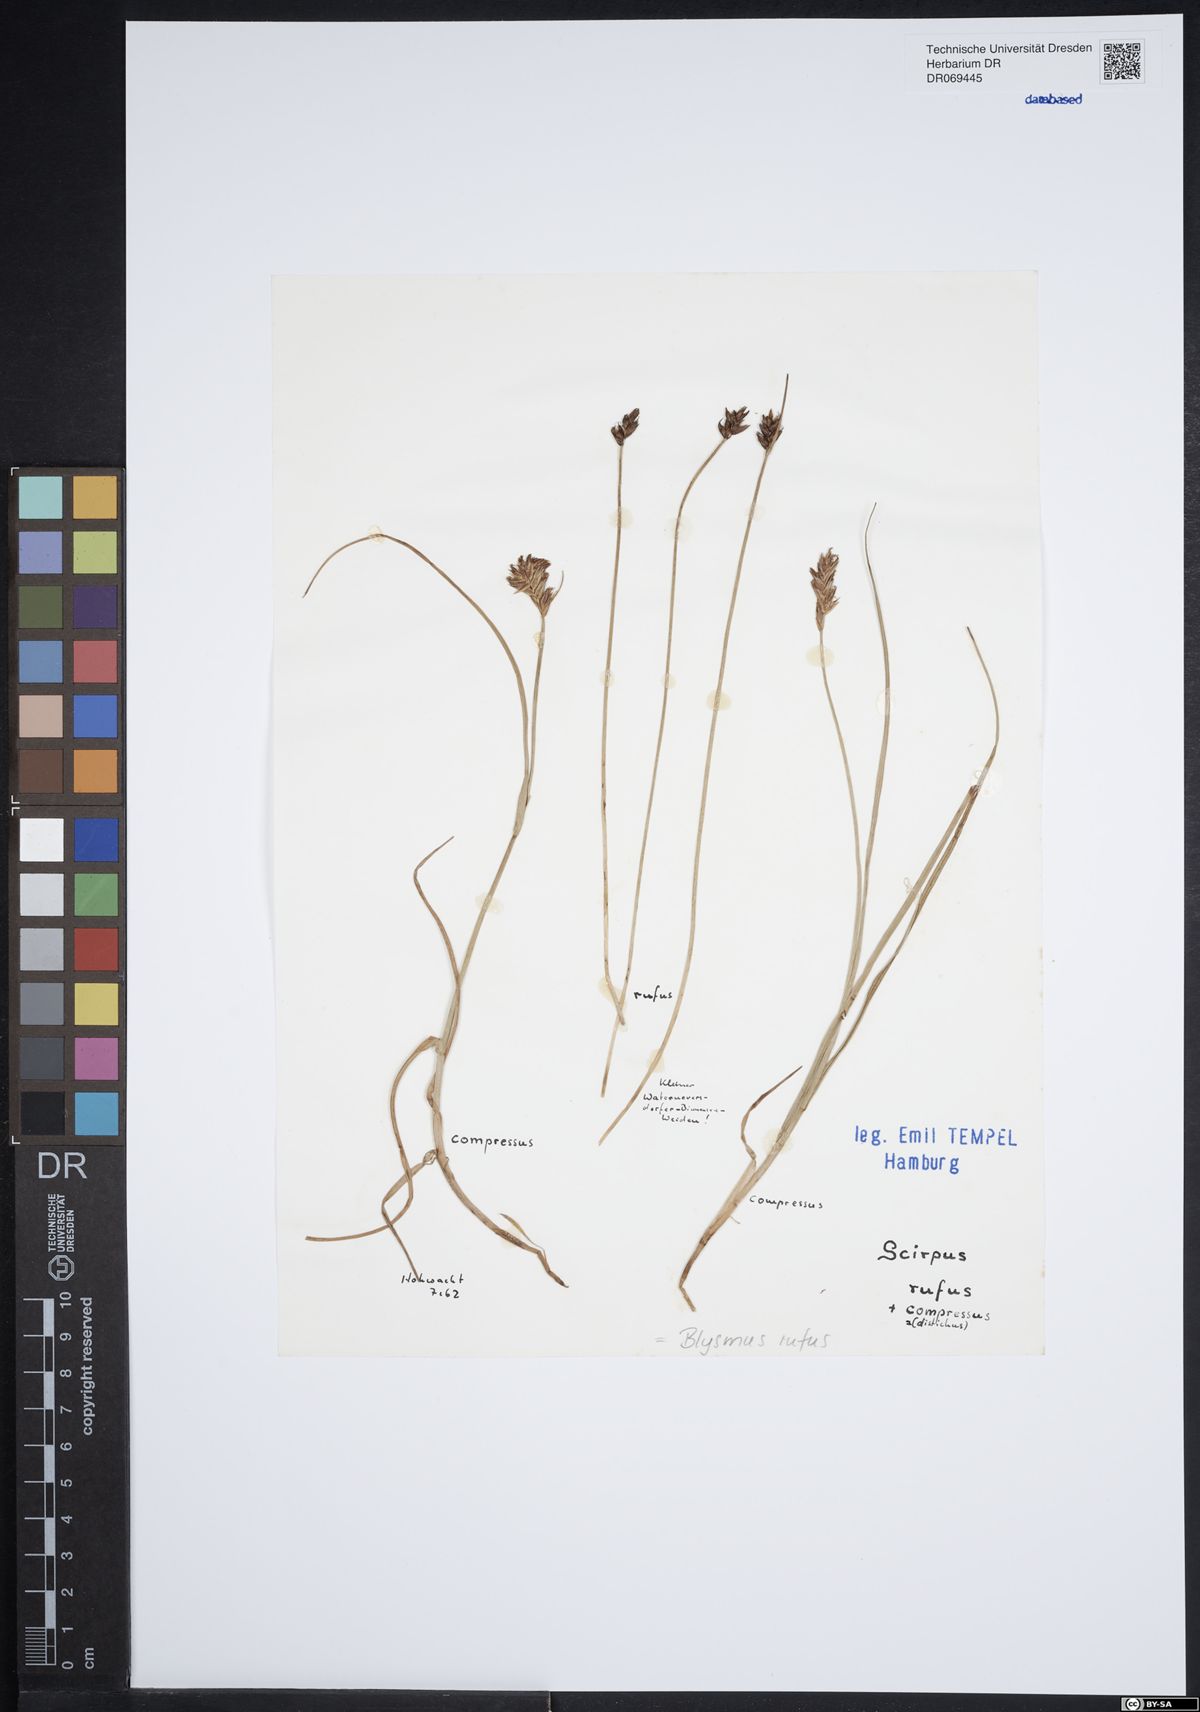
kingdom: Plantae
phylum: Tracheophyta
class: Liliopsida
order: Poales
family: Cyperaceae
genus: Blysmus
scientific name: Blysmus rufus
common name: Saltmarsh flat-sedge
